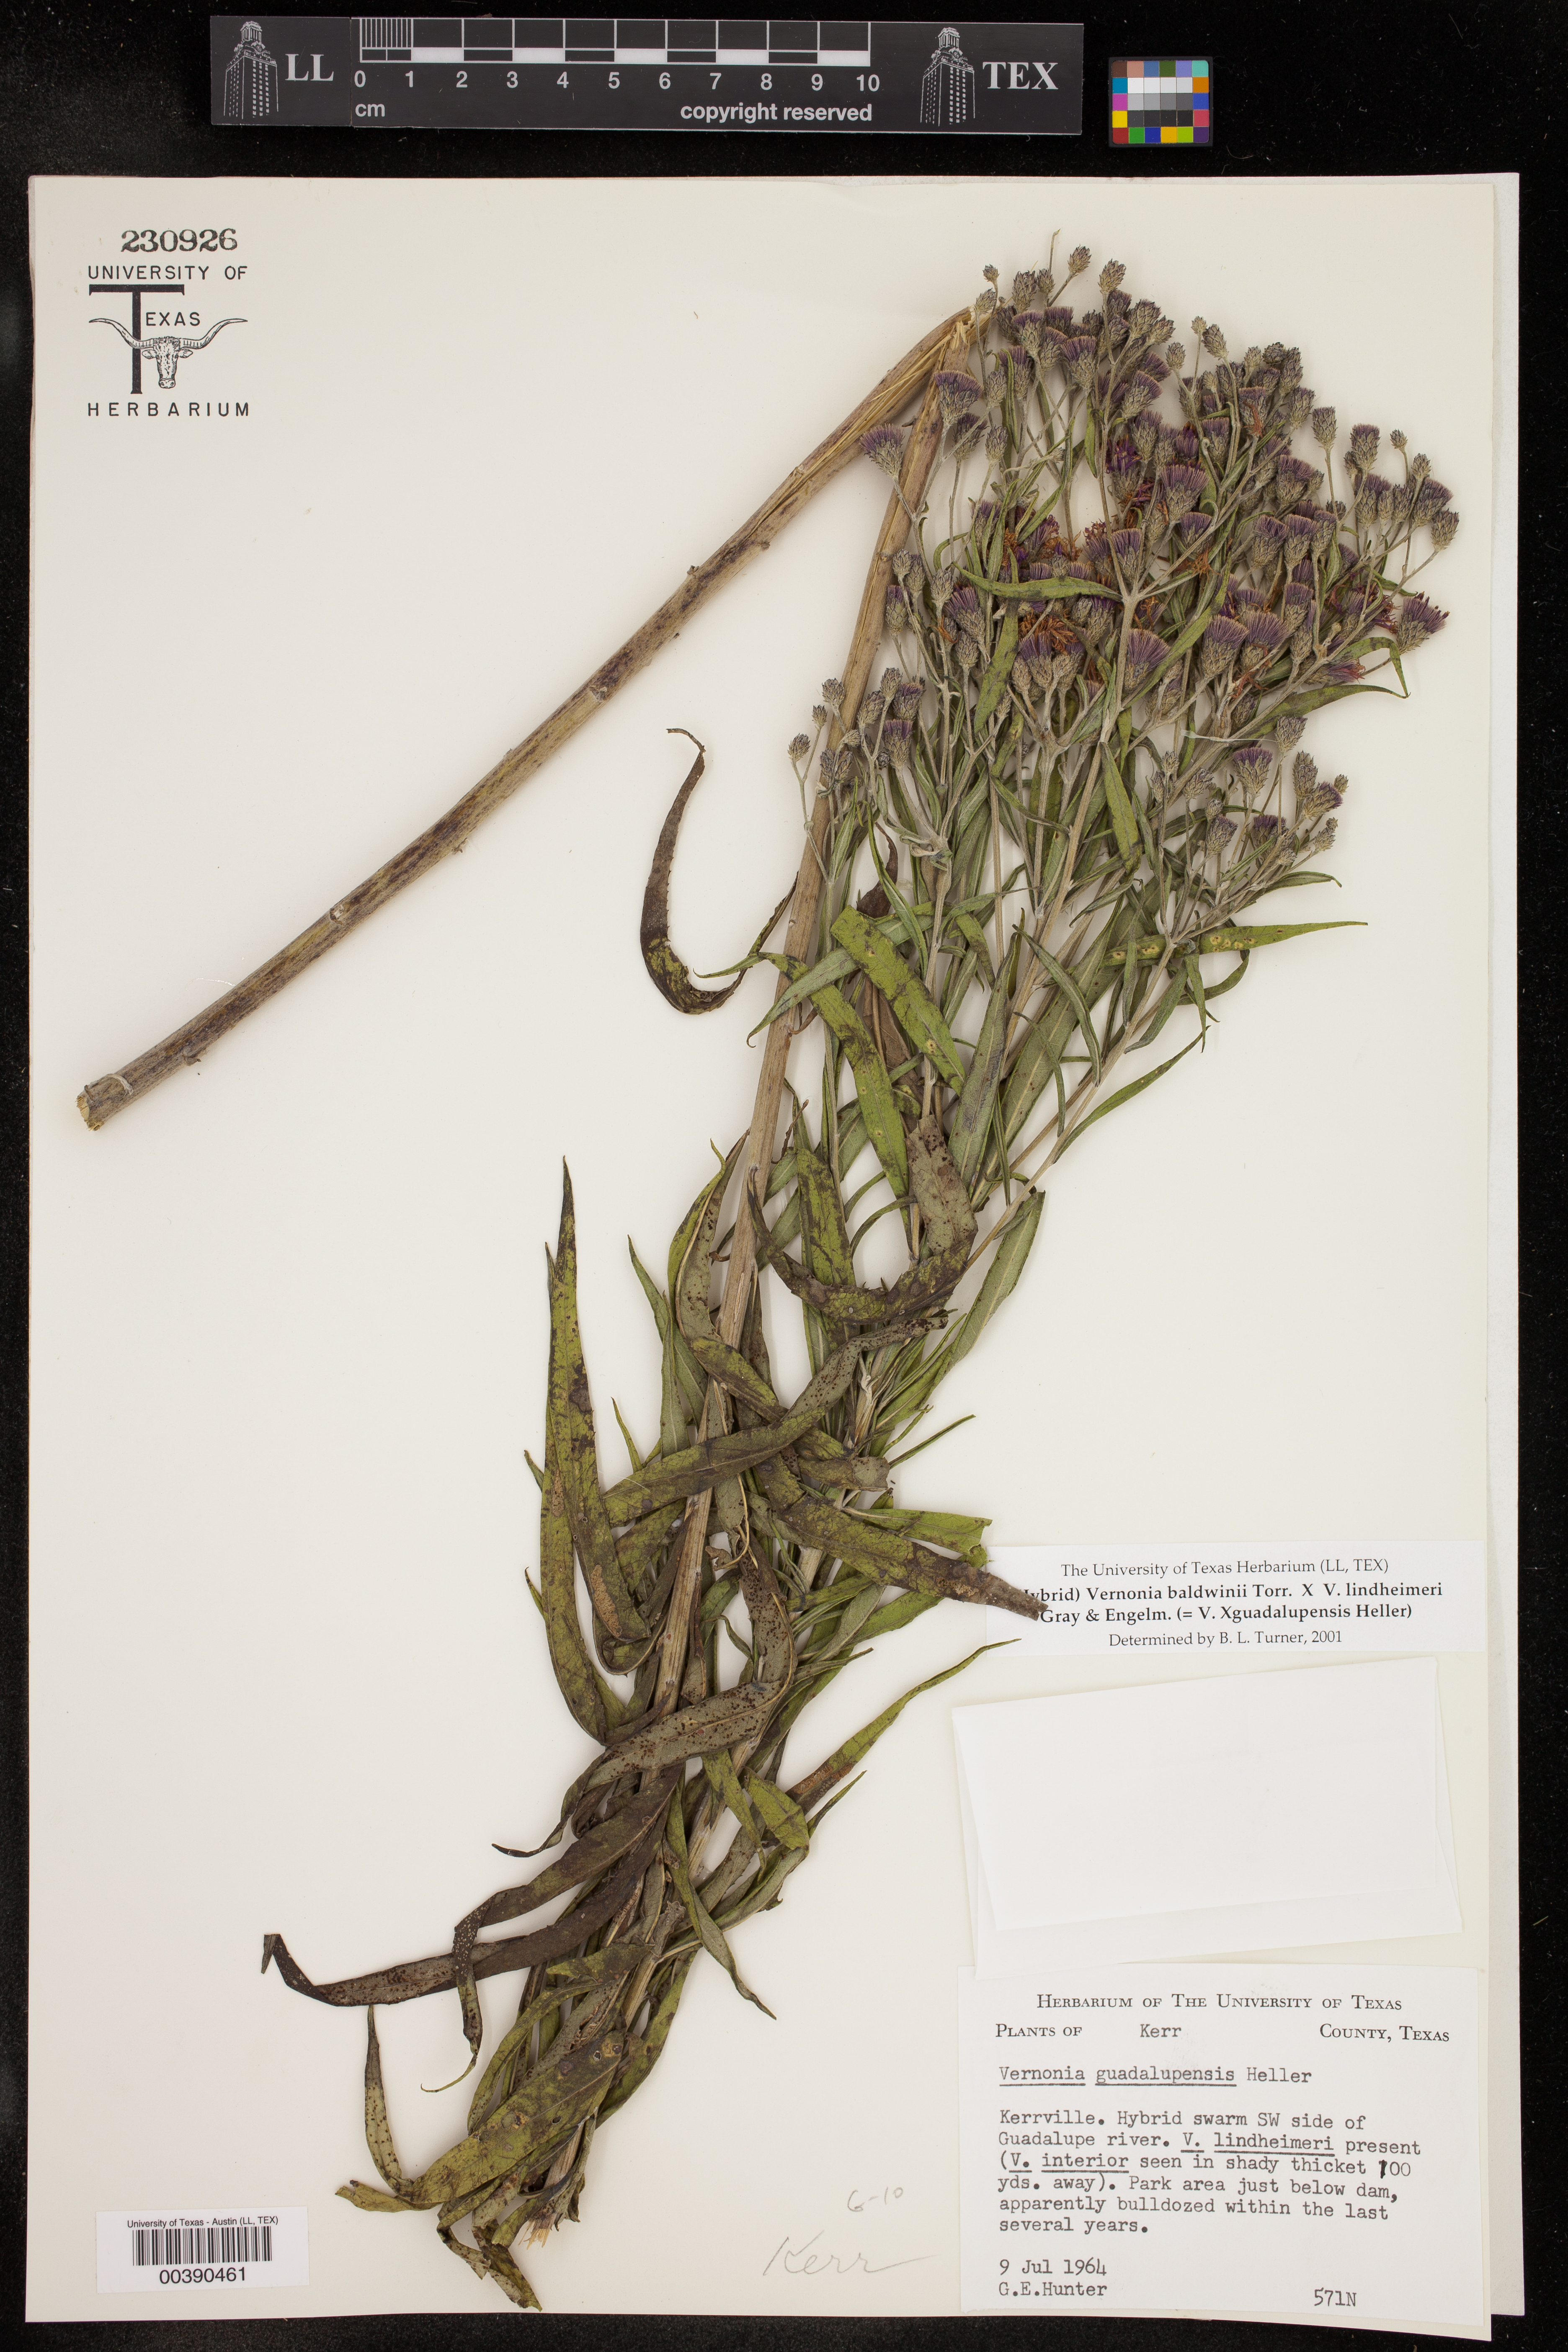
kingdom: Plantae
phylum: Tracheophyta
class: Magnoliopsida
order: Asterales
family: Asteraceae
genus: Vernonia
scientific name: Vernonia
